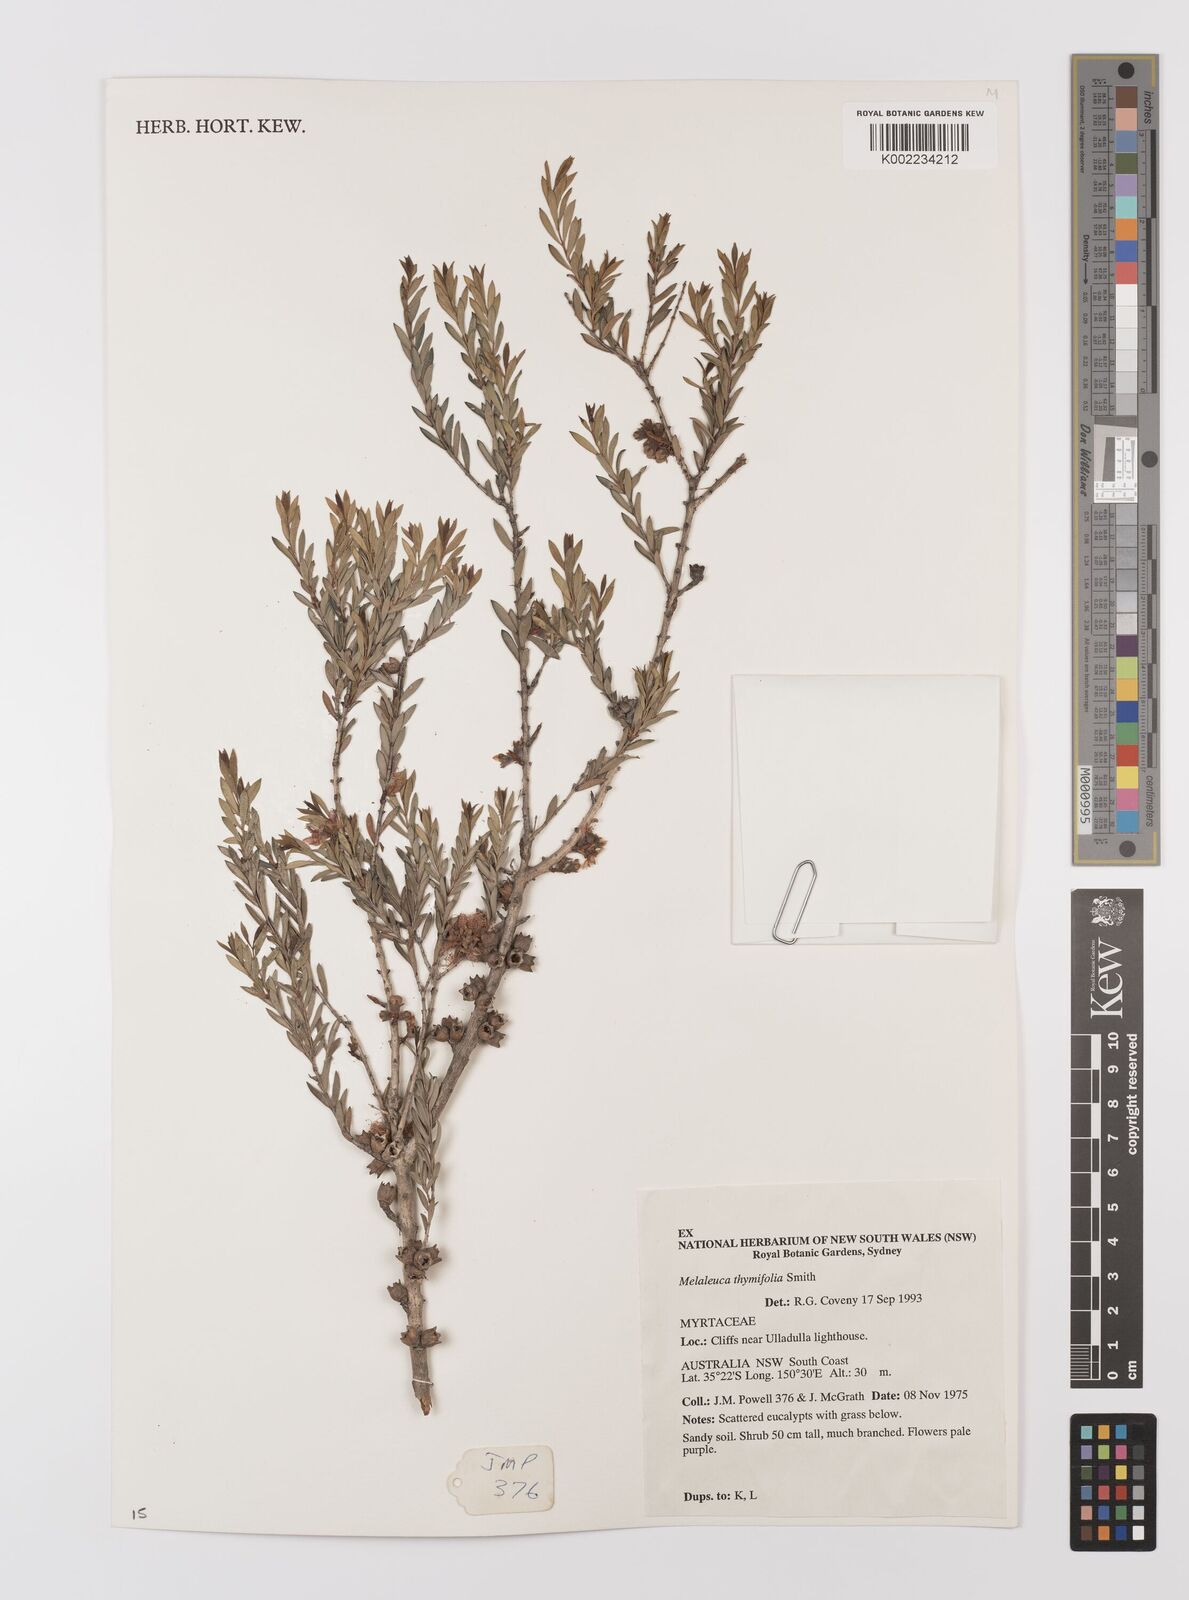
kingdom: Plantae
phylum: Tracheophyta
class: Magnoliopsida
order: Myrtales
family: Myrtaceae
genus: Melaleuca
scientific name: Melaleuca thymifolia
